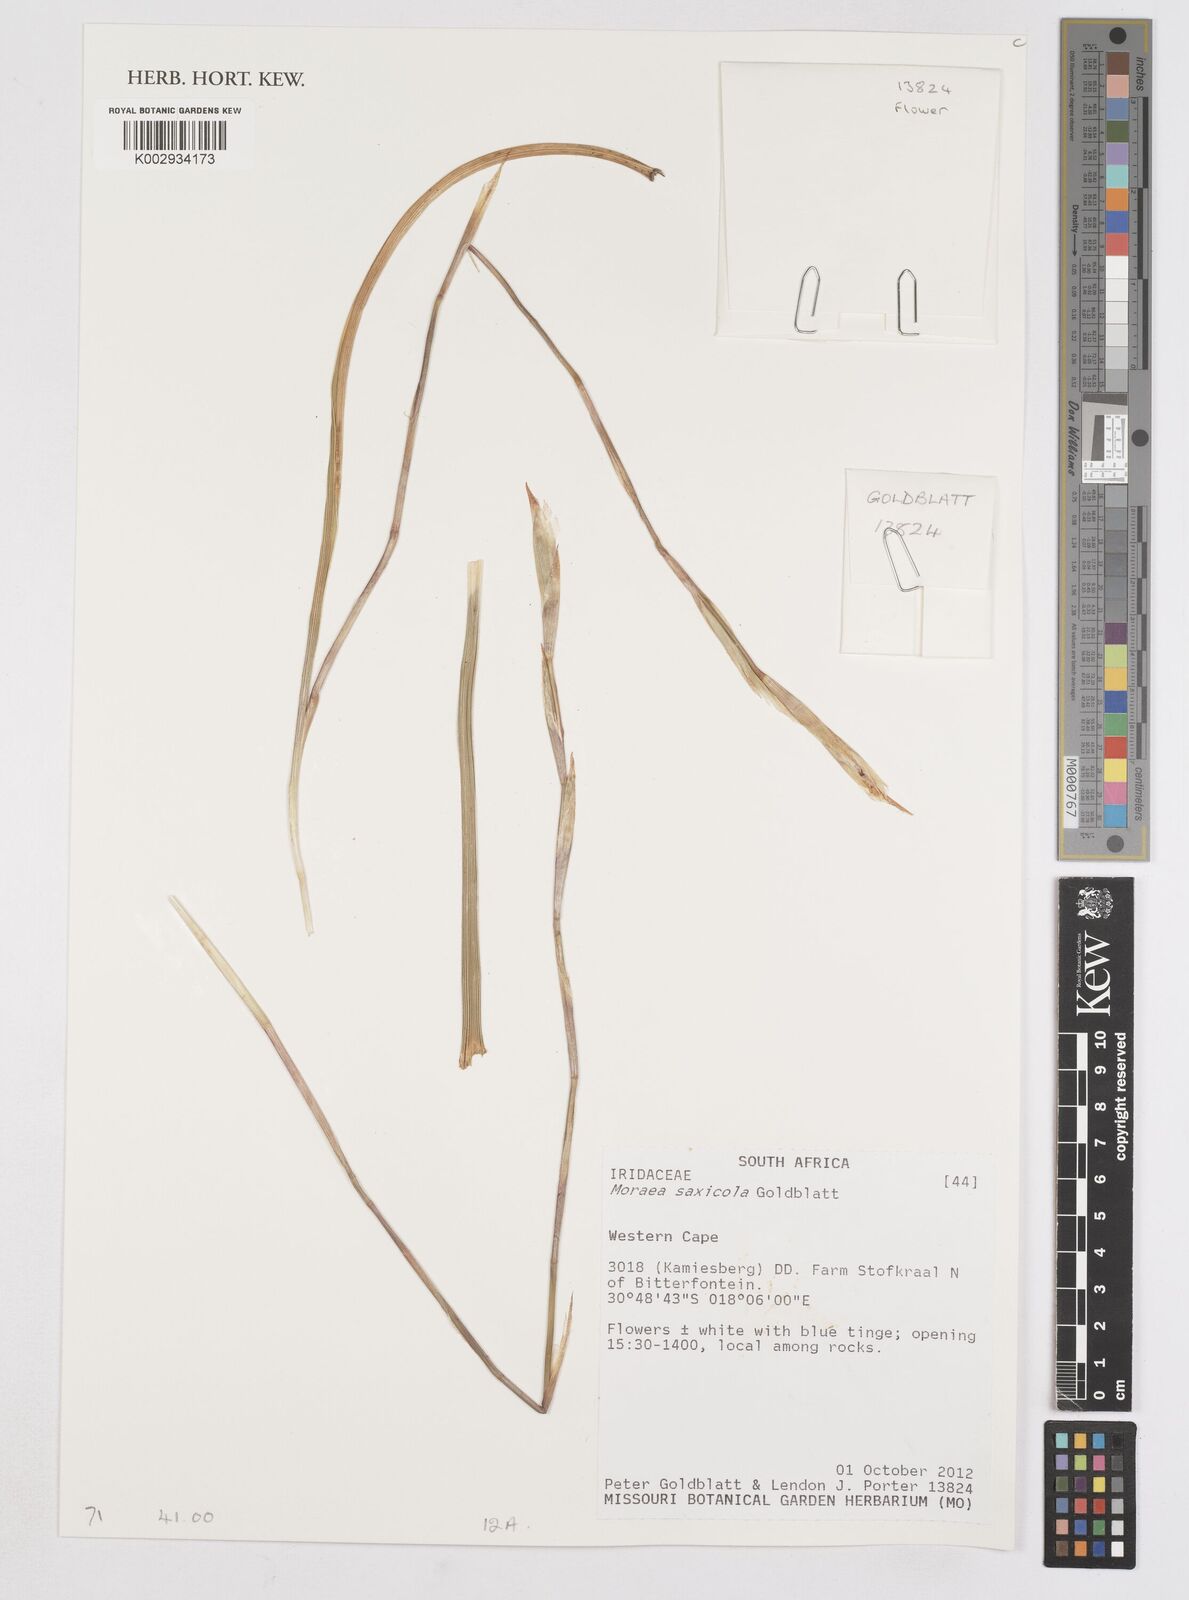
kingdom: Plantae
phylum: Tracheophyta
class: Liliopsida
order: Asparagales
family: Iridaceae
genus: Moraea
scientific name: Moraea saxicola
